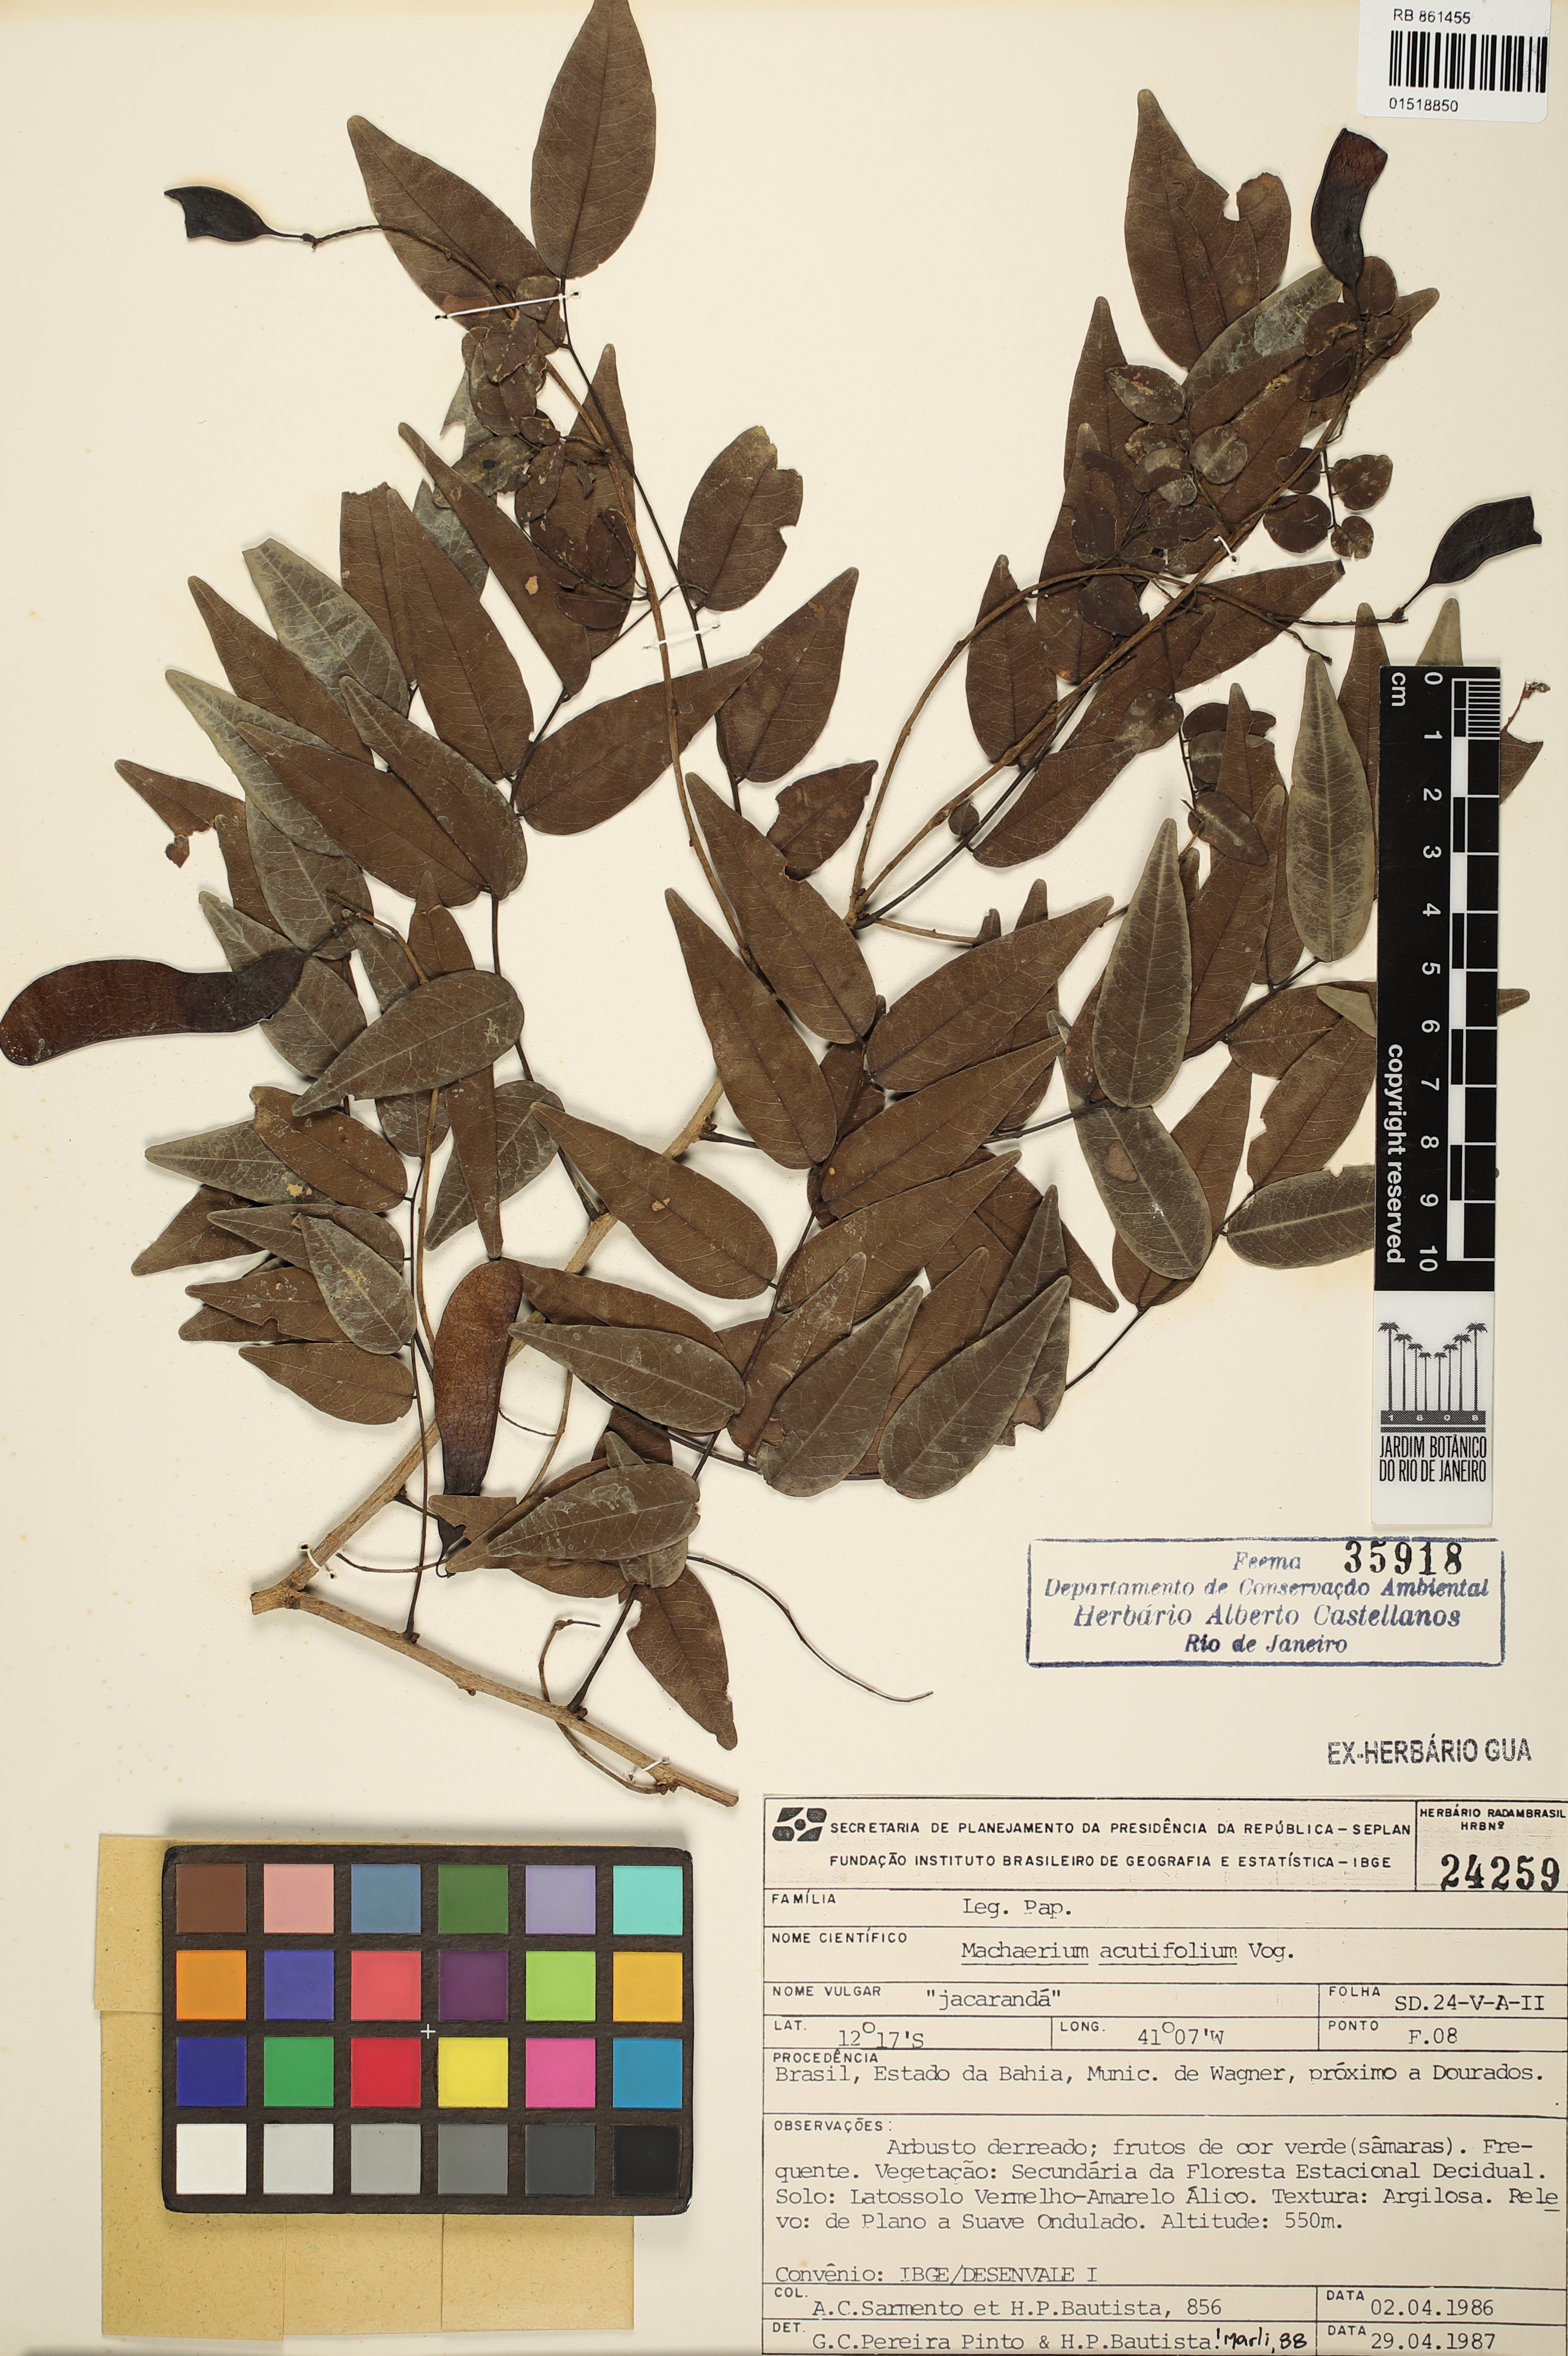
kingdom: Plantae
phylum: Tracheophyta
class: Magnoliopsida
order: Fabales
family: Fabaceae
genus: Machaerium
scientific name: Machaerium acutifolium
